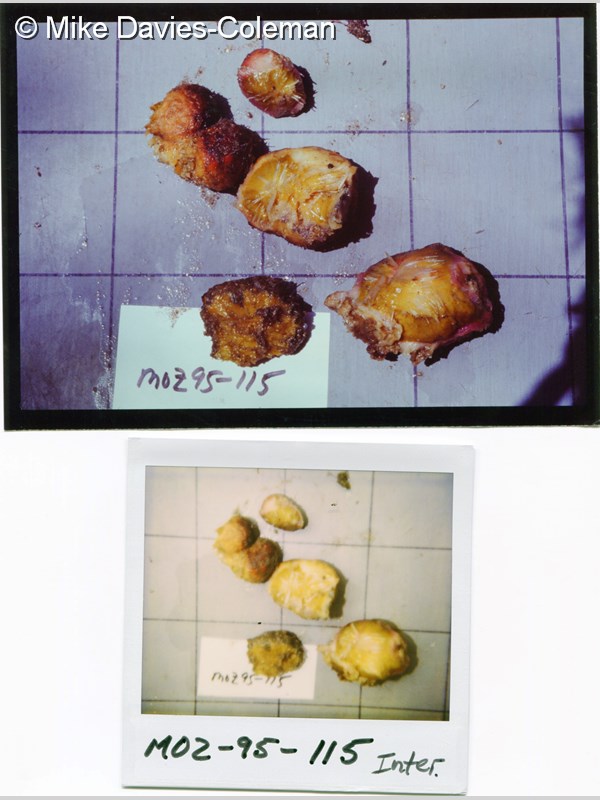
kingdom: Animalia
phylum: Porifera
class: Demospongiae
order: Tethyida
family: Tethyidae
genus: Tethya
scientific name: Tethya
